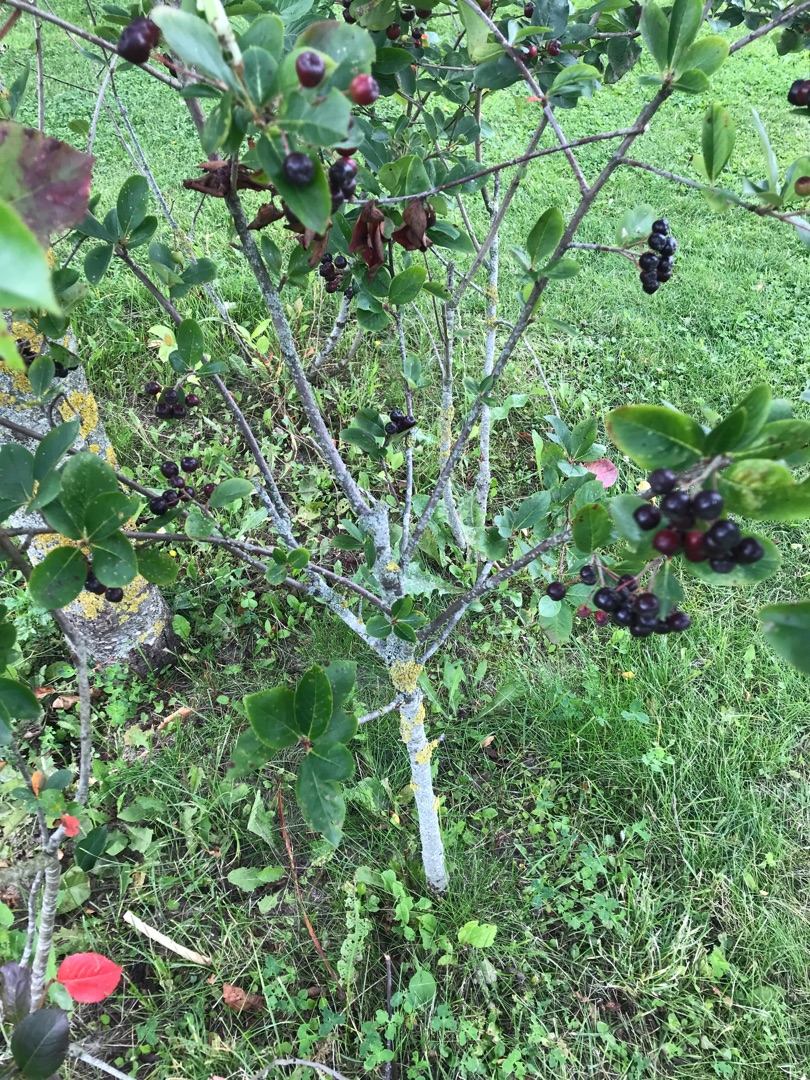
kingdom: Plantae
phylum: Tracheophyta
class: Magnoliopsida
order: Rosales
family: Rosaceae
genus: Aronia
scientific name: Aronia melanocarpa
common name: Sortfrugtet surbær
